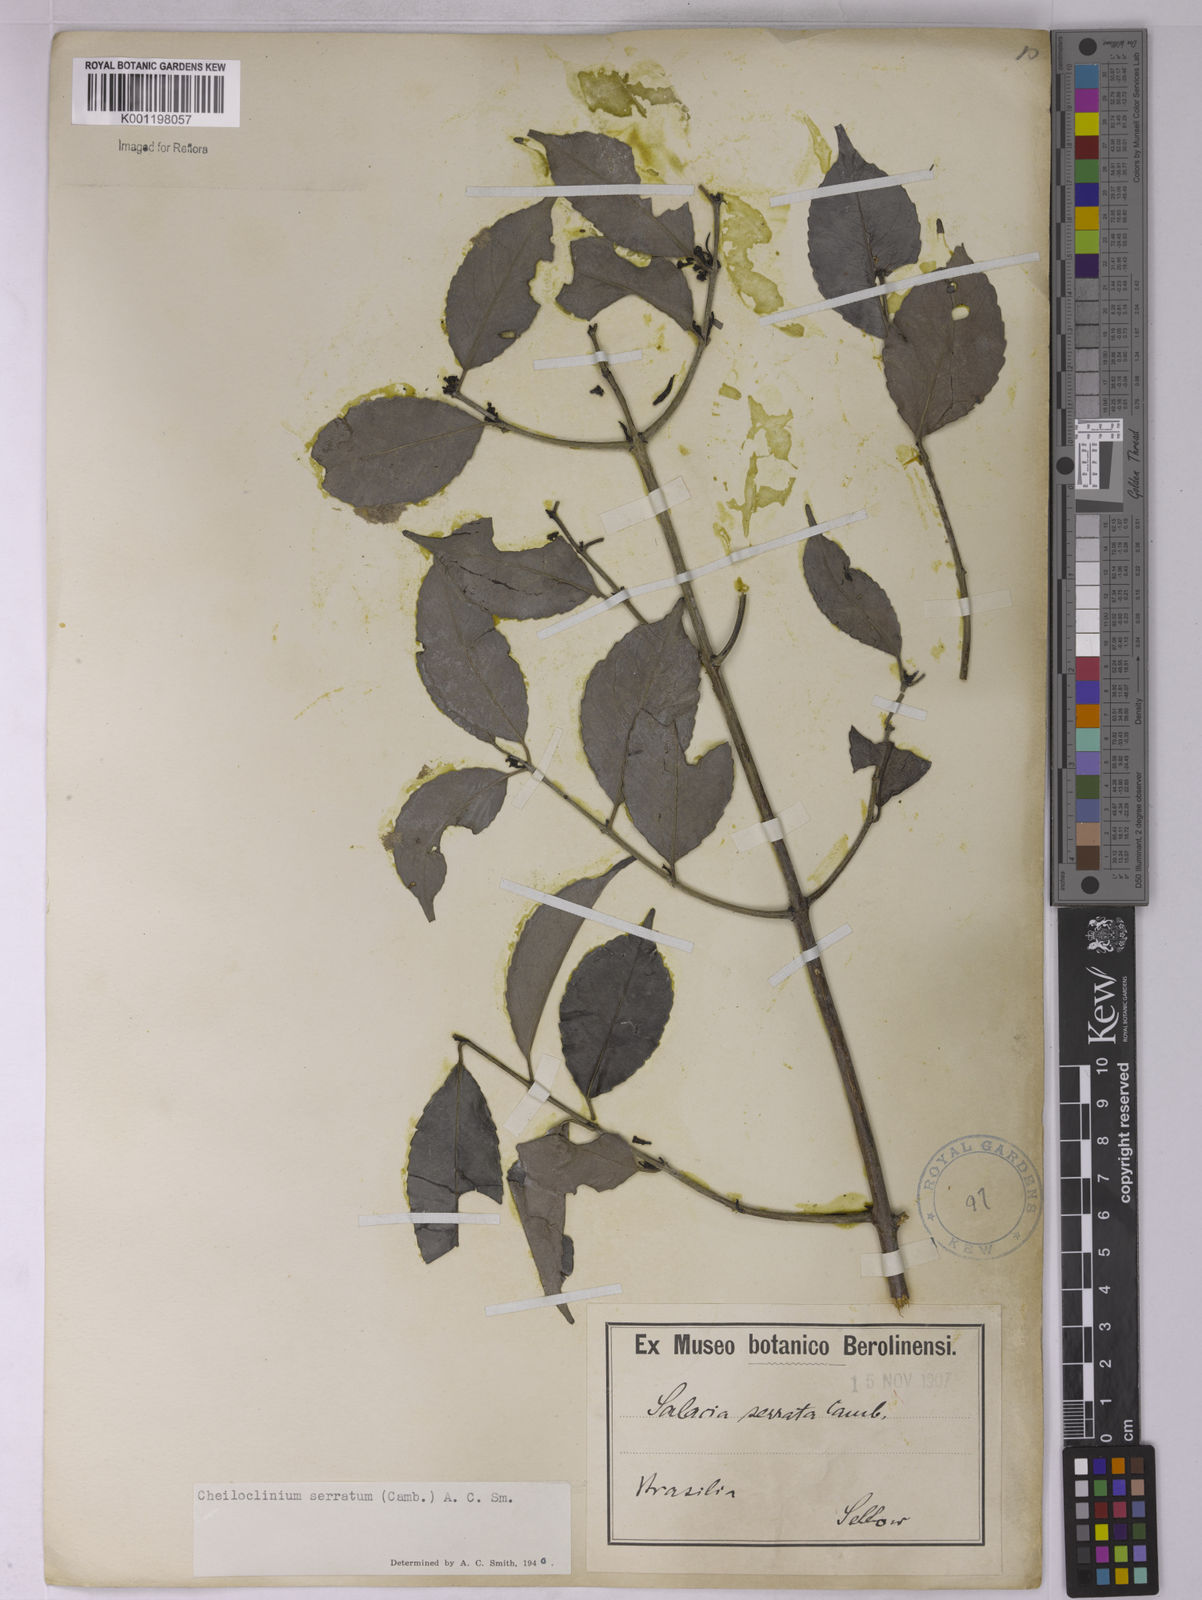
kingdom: Plantae
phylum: Tracheophyta
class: Magnoliopsida
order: Celastrales
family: Celastraceae
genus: Cheiloclinium
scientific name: Cheiloclinium serratum
